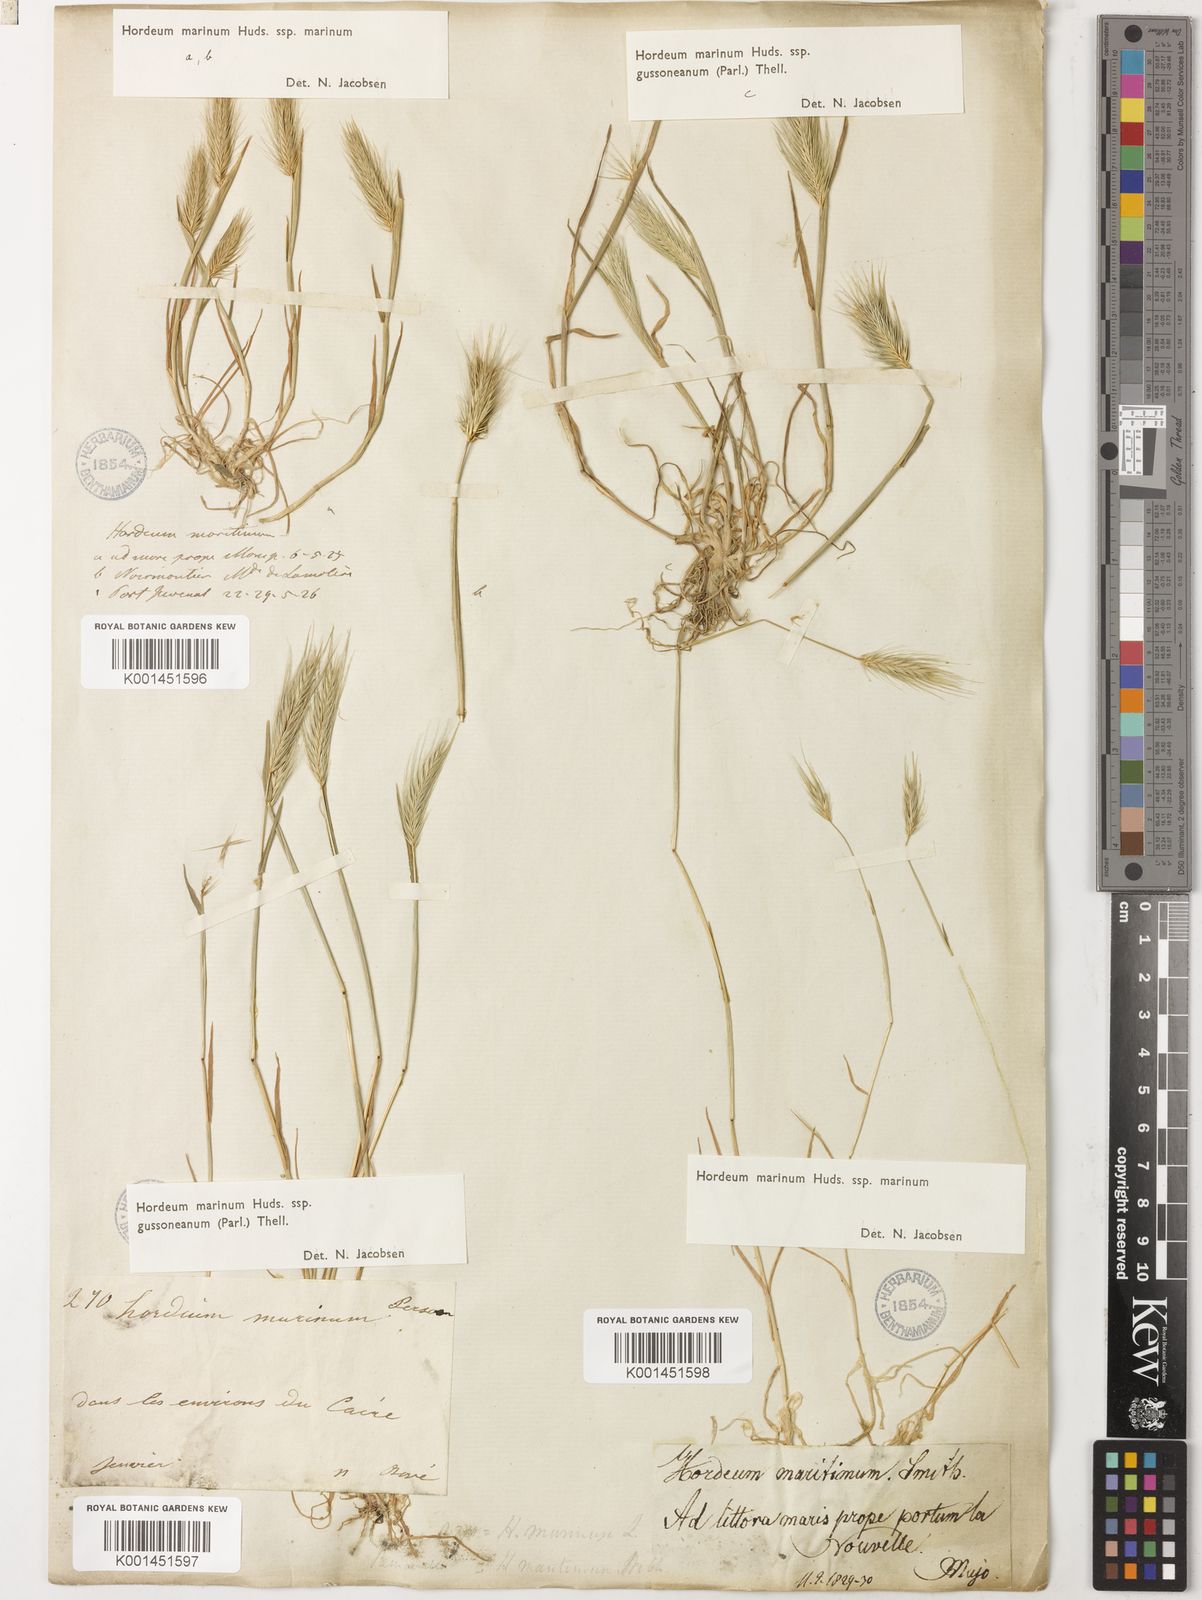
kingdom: Plantae
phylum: Tracheophyta
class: Liliopsida
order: Poales
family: Poaceae
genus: Hordeum
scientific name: Hordeum marinum
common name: Sea barley
